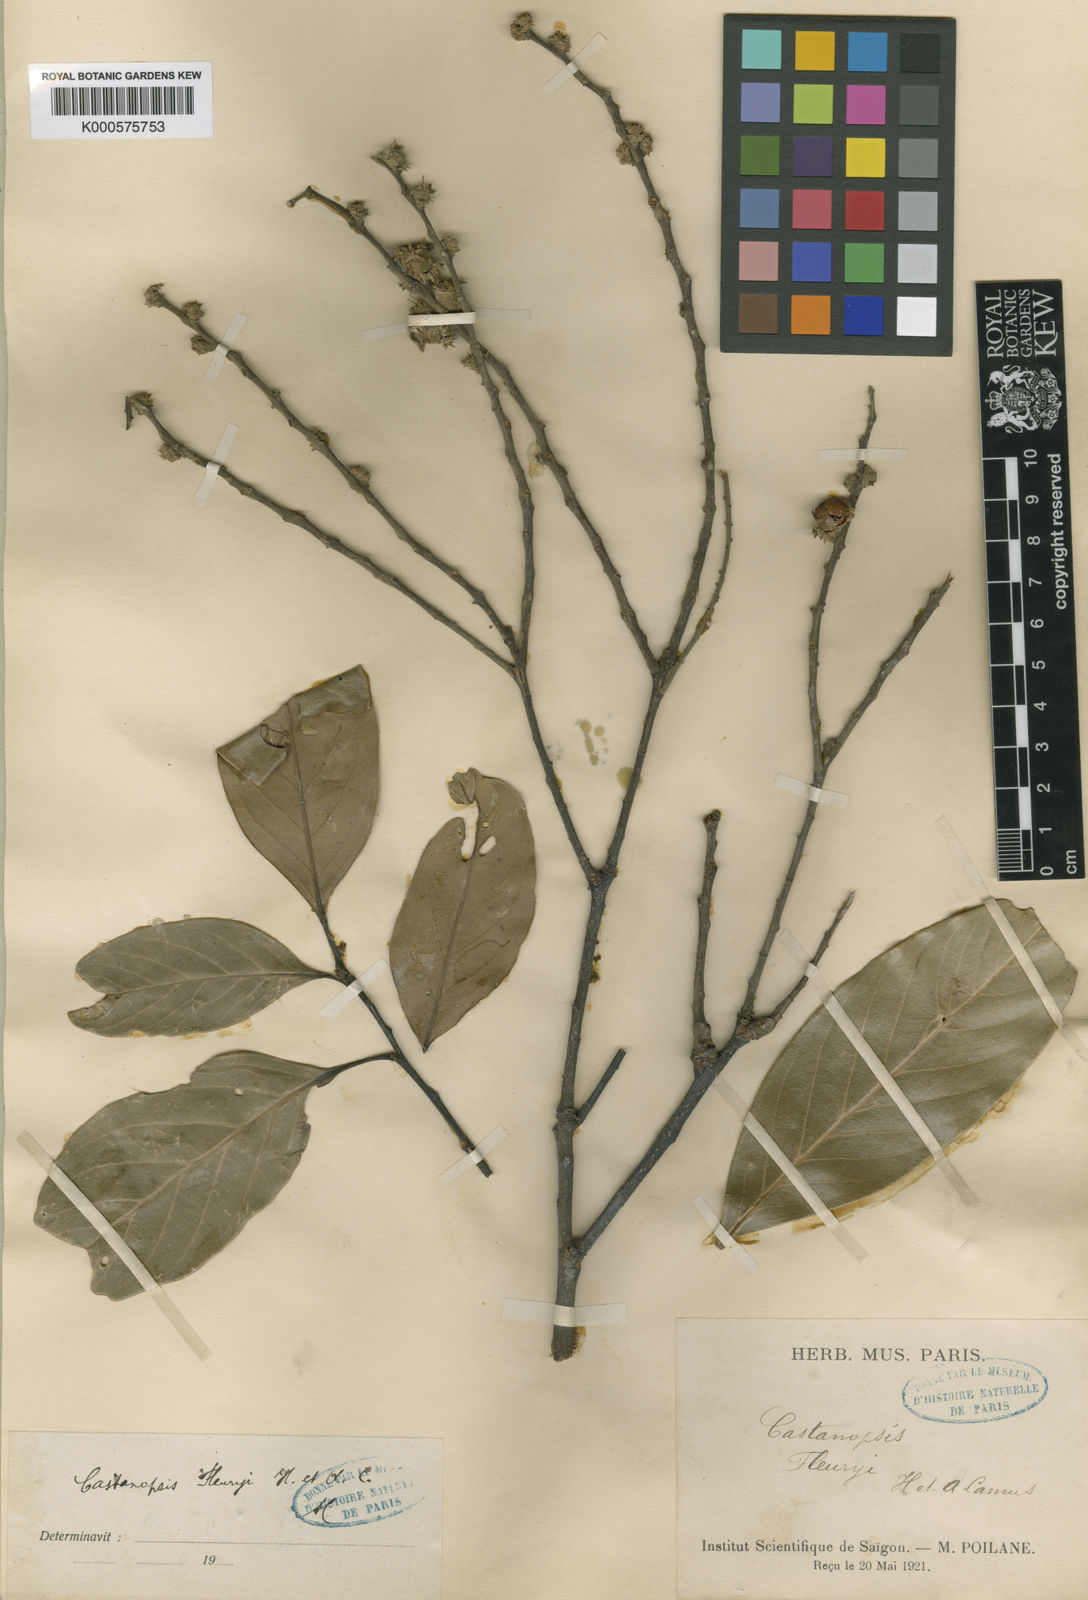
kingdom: Plantae
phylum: Tracheophyta
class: Magnoliopsida
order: Fagales
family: Fagaceae
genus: Castanopsis
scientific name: Castanopsis fleuryi
